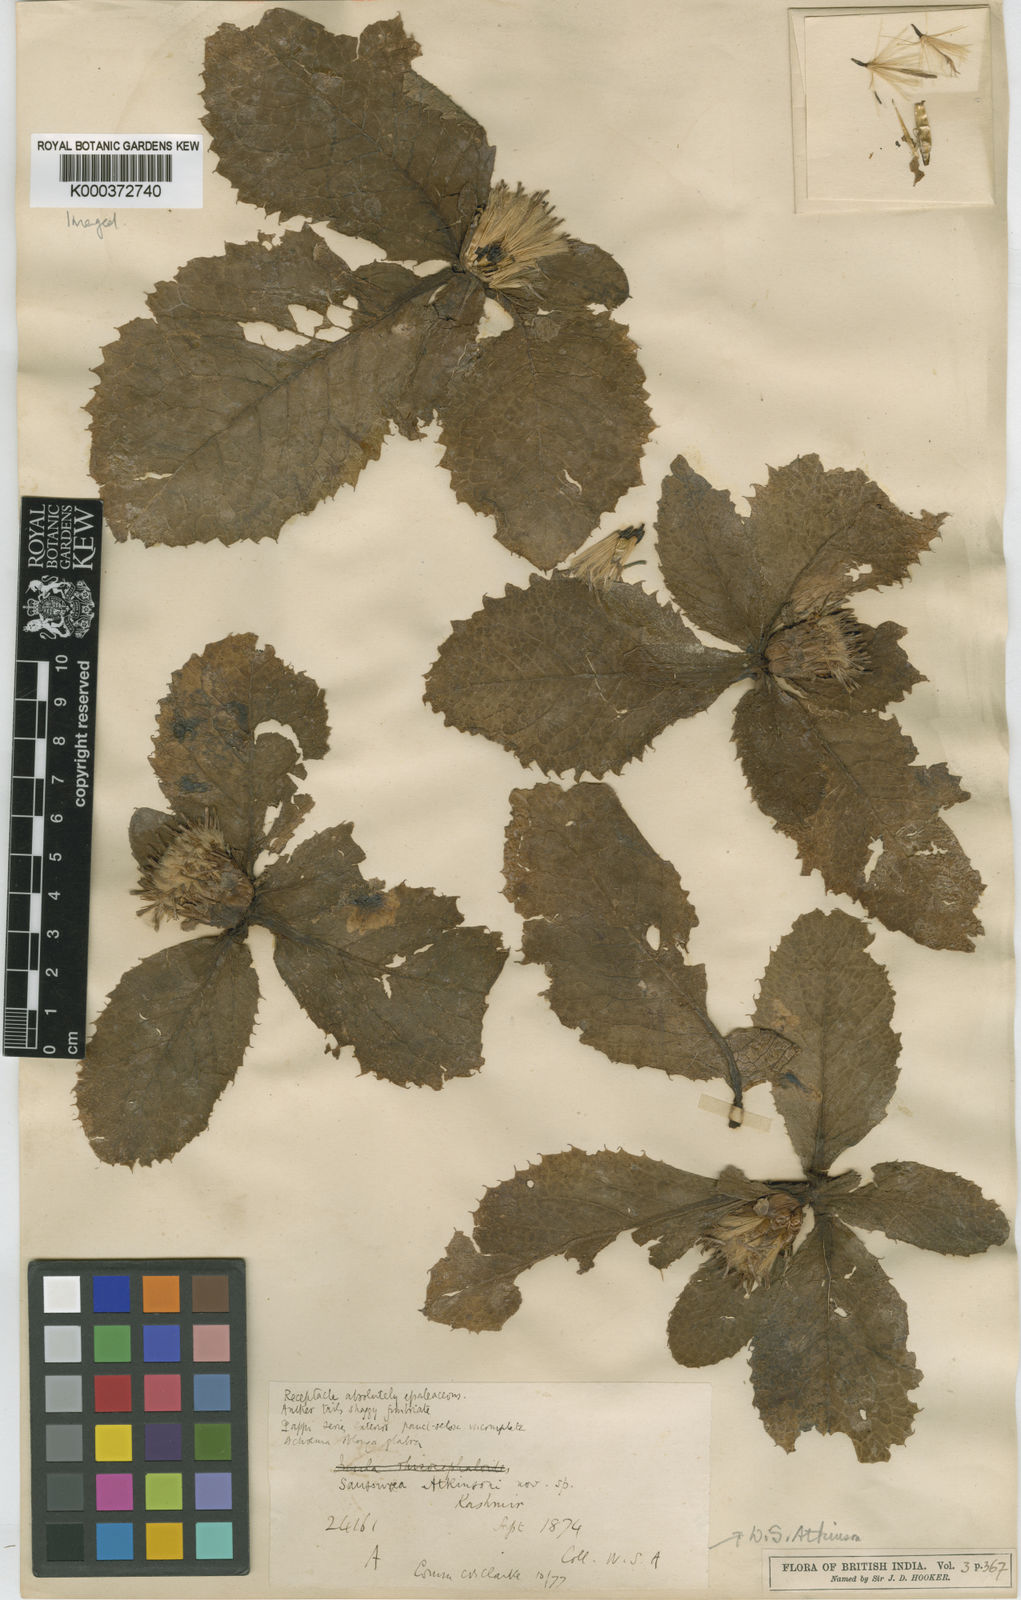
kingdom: Plantae
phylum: Tracheophyta
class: Magnoliopsida
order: Asterales
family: Asteraceae
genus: Saussurea
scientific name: Saussurea atkinsonii
